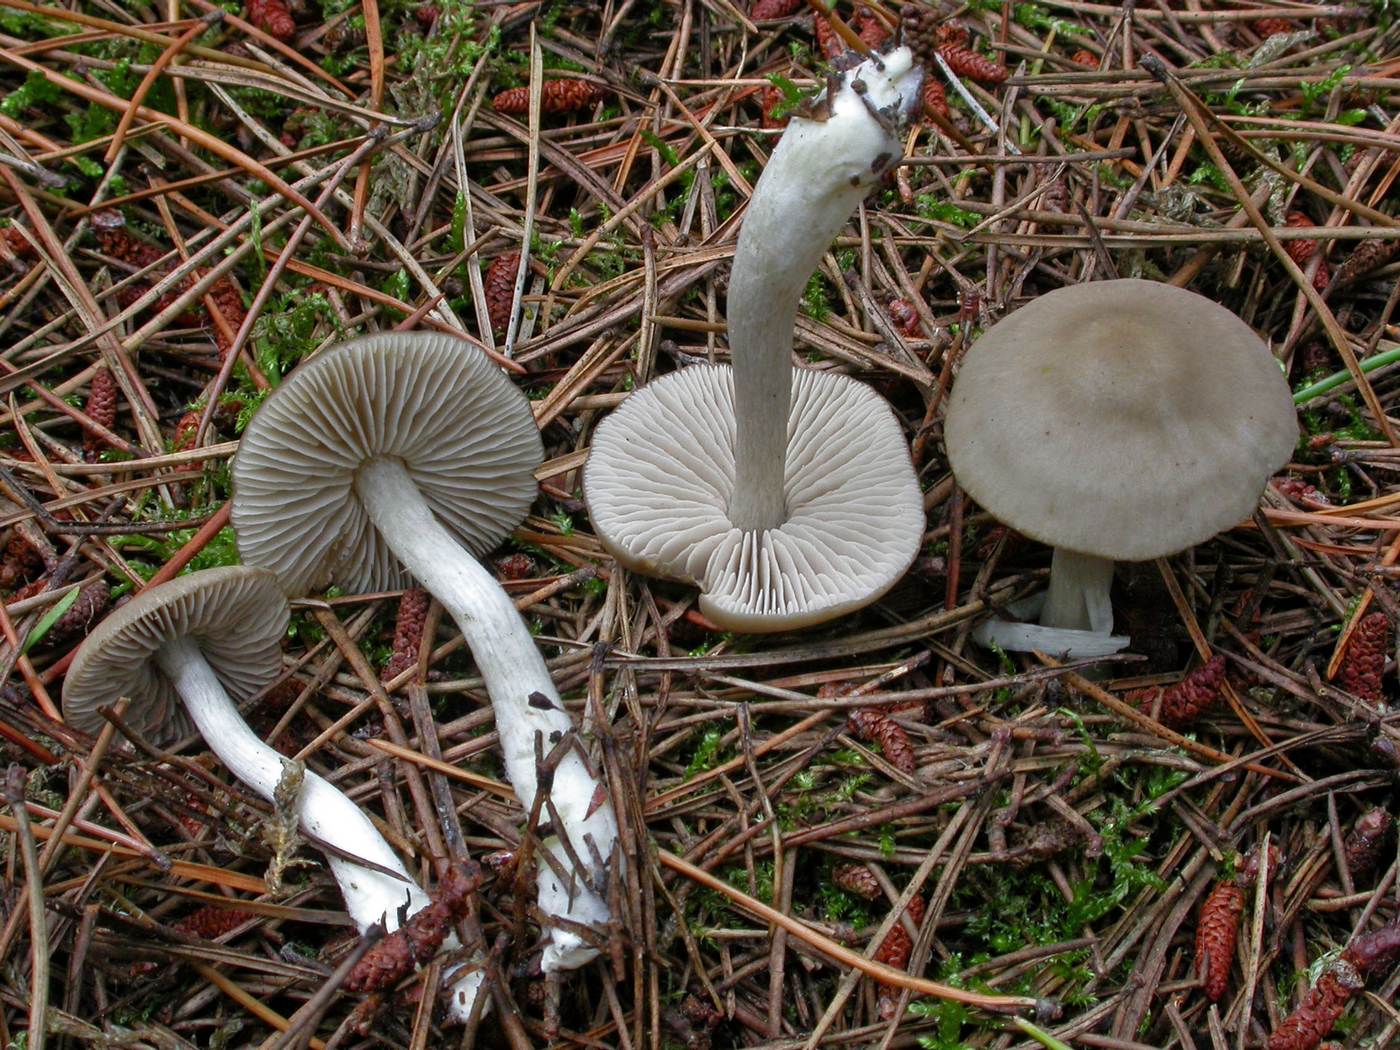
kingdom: Fungi
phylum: Basidiomycota
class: Agaricomycetes
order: Agaricales
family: Entolomataceae
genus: Entocybe
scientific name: Entocybe turbida
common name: plantage-rødblad
